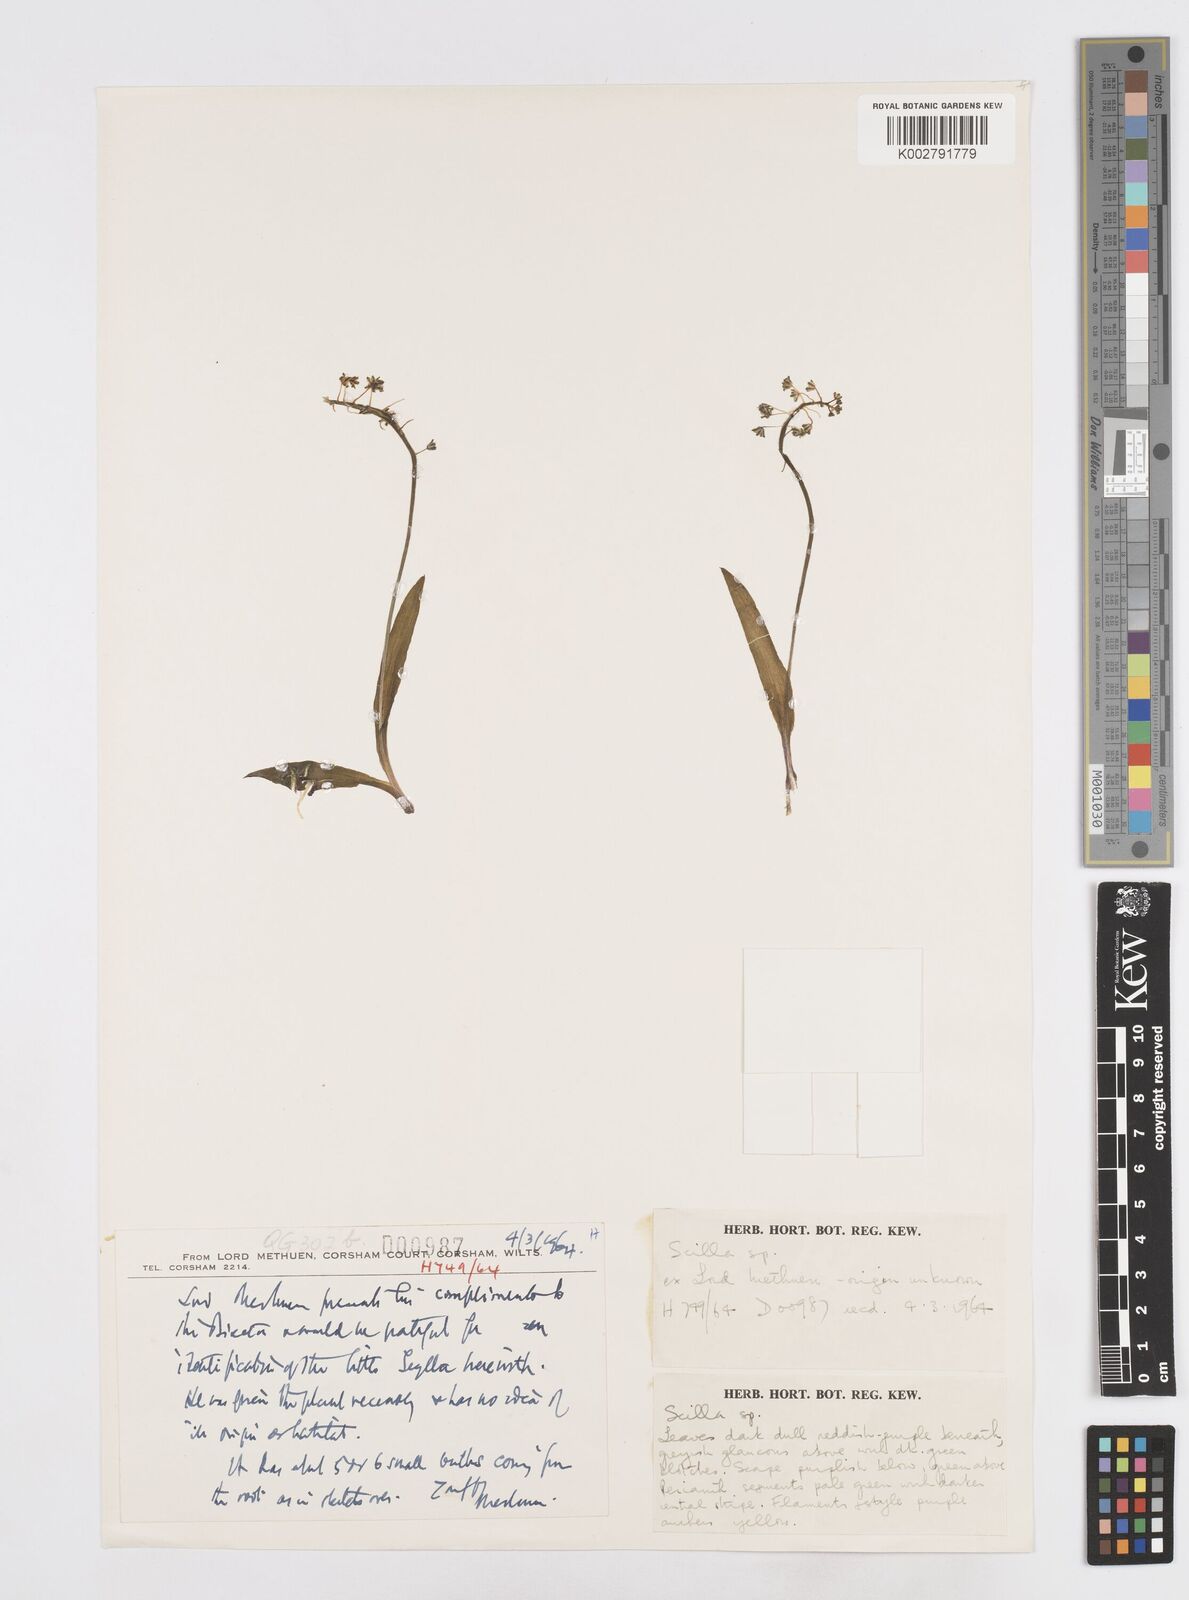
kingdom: Plantae
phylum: Tracheophyta
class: Liliopsida
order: Asparagales
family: Asparagaceae
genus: Scilla
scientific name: Scilla
